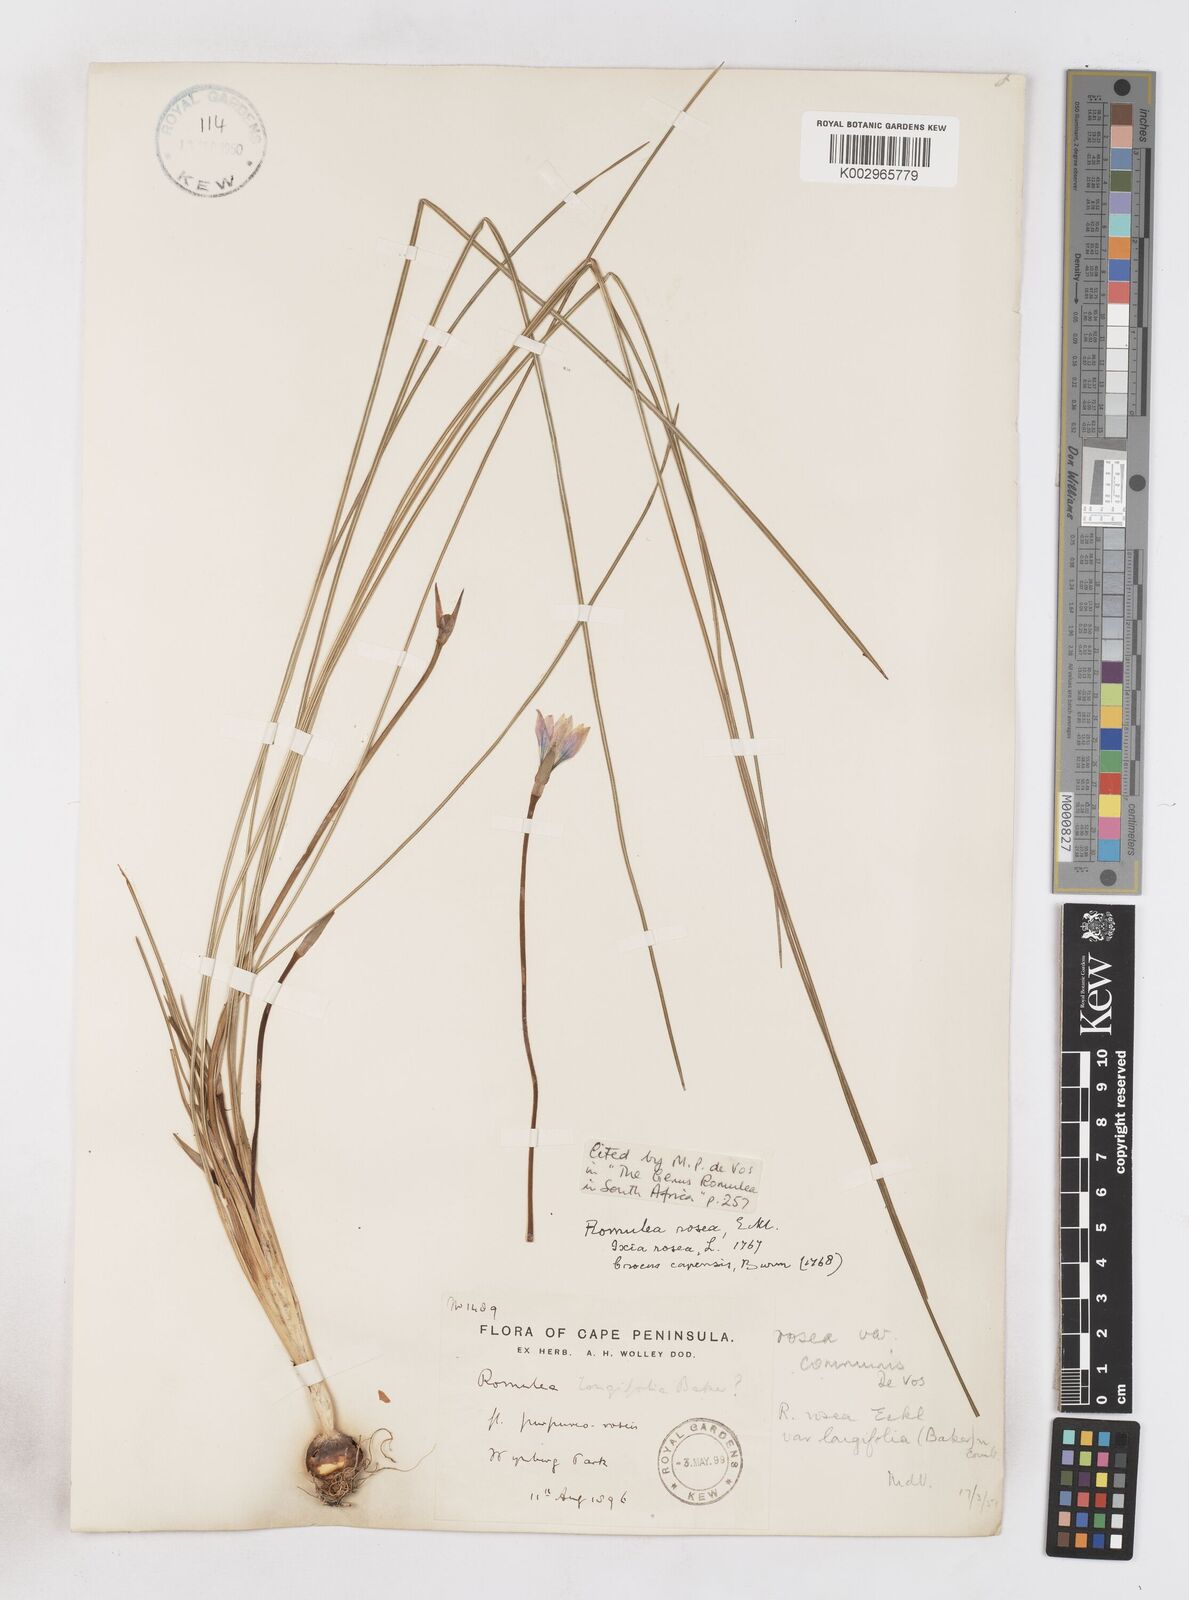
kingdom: Plantae
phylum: Tracheophyta
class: Liliopsida
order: Asparagales
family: Iridaceae
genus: Romulea
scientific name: Romulea rosea
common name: Oniongrass
